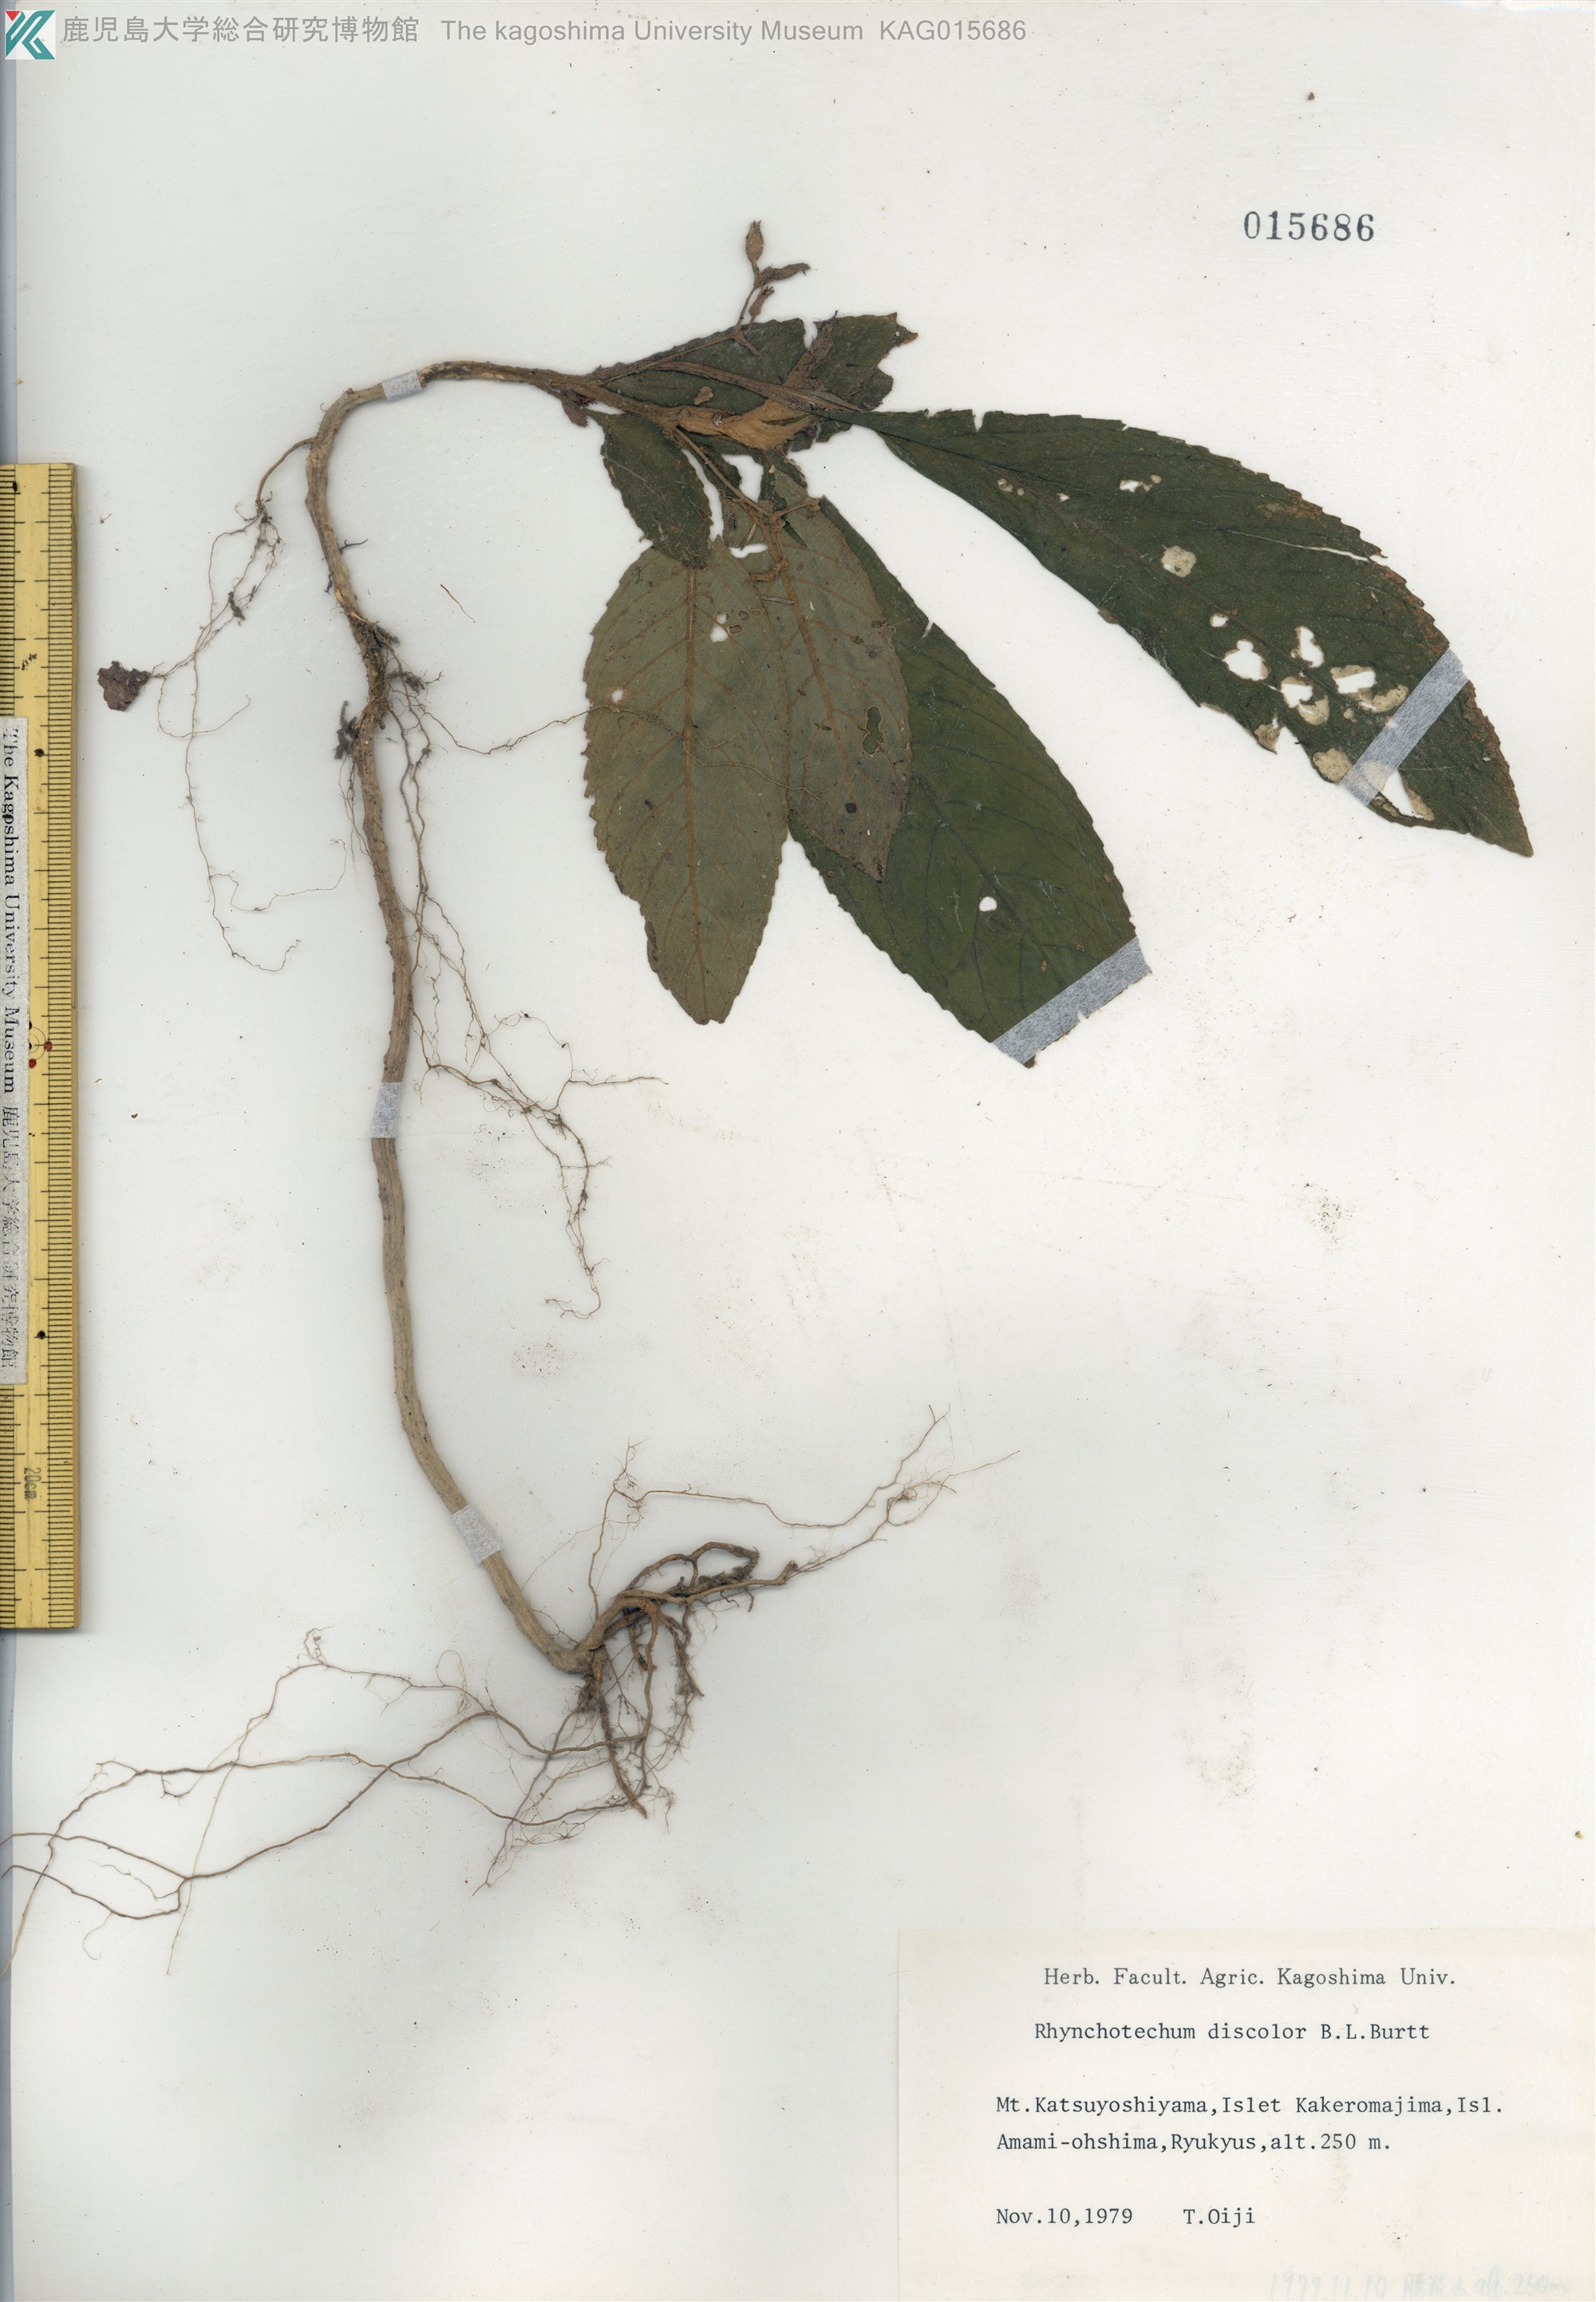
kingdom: Plantae
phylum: Tracheophyta
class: Magnoliopsida
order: Lamiales
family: Gesneriaceae
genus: Rhynchotechum
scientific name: Rhynchotechum discolor
